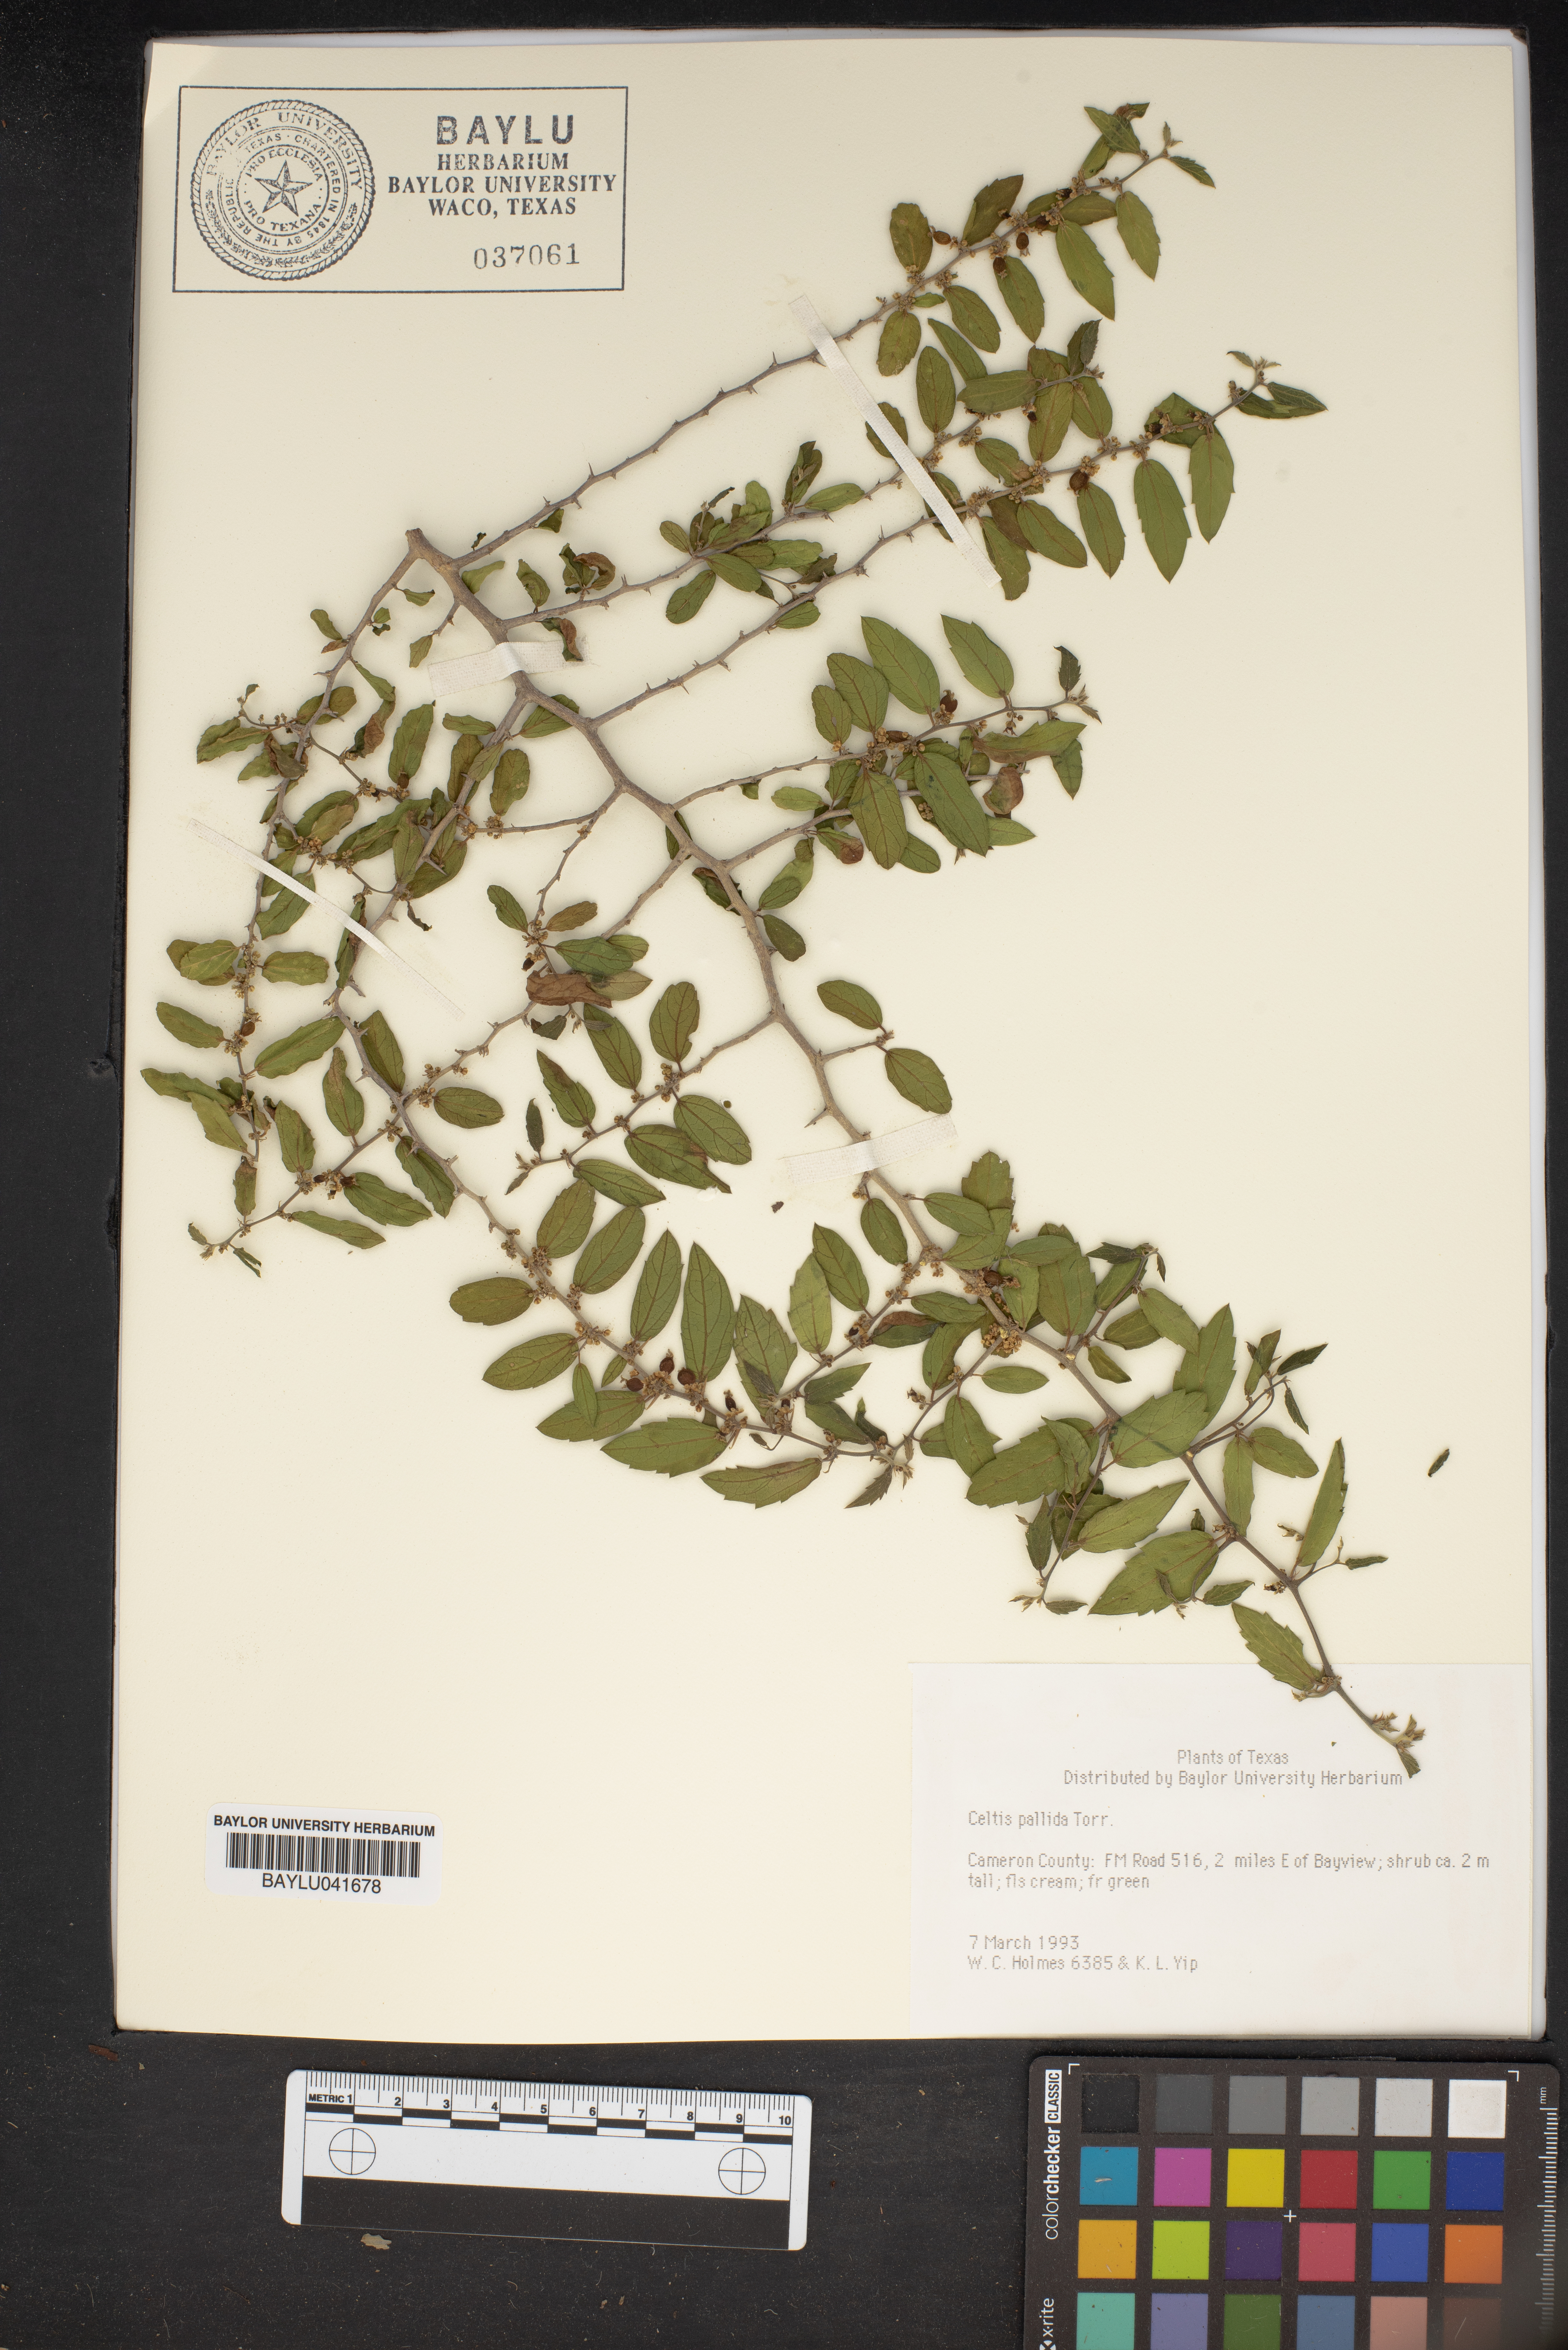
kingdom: Plantae
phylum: Tracheophyta
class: Magnoliopsida
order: Rosales
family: Cannabaceae
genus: Celtis
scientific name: Celtis pallida
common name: Desert hackberry
